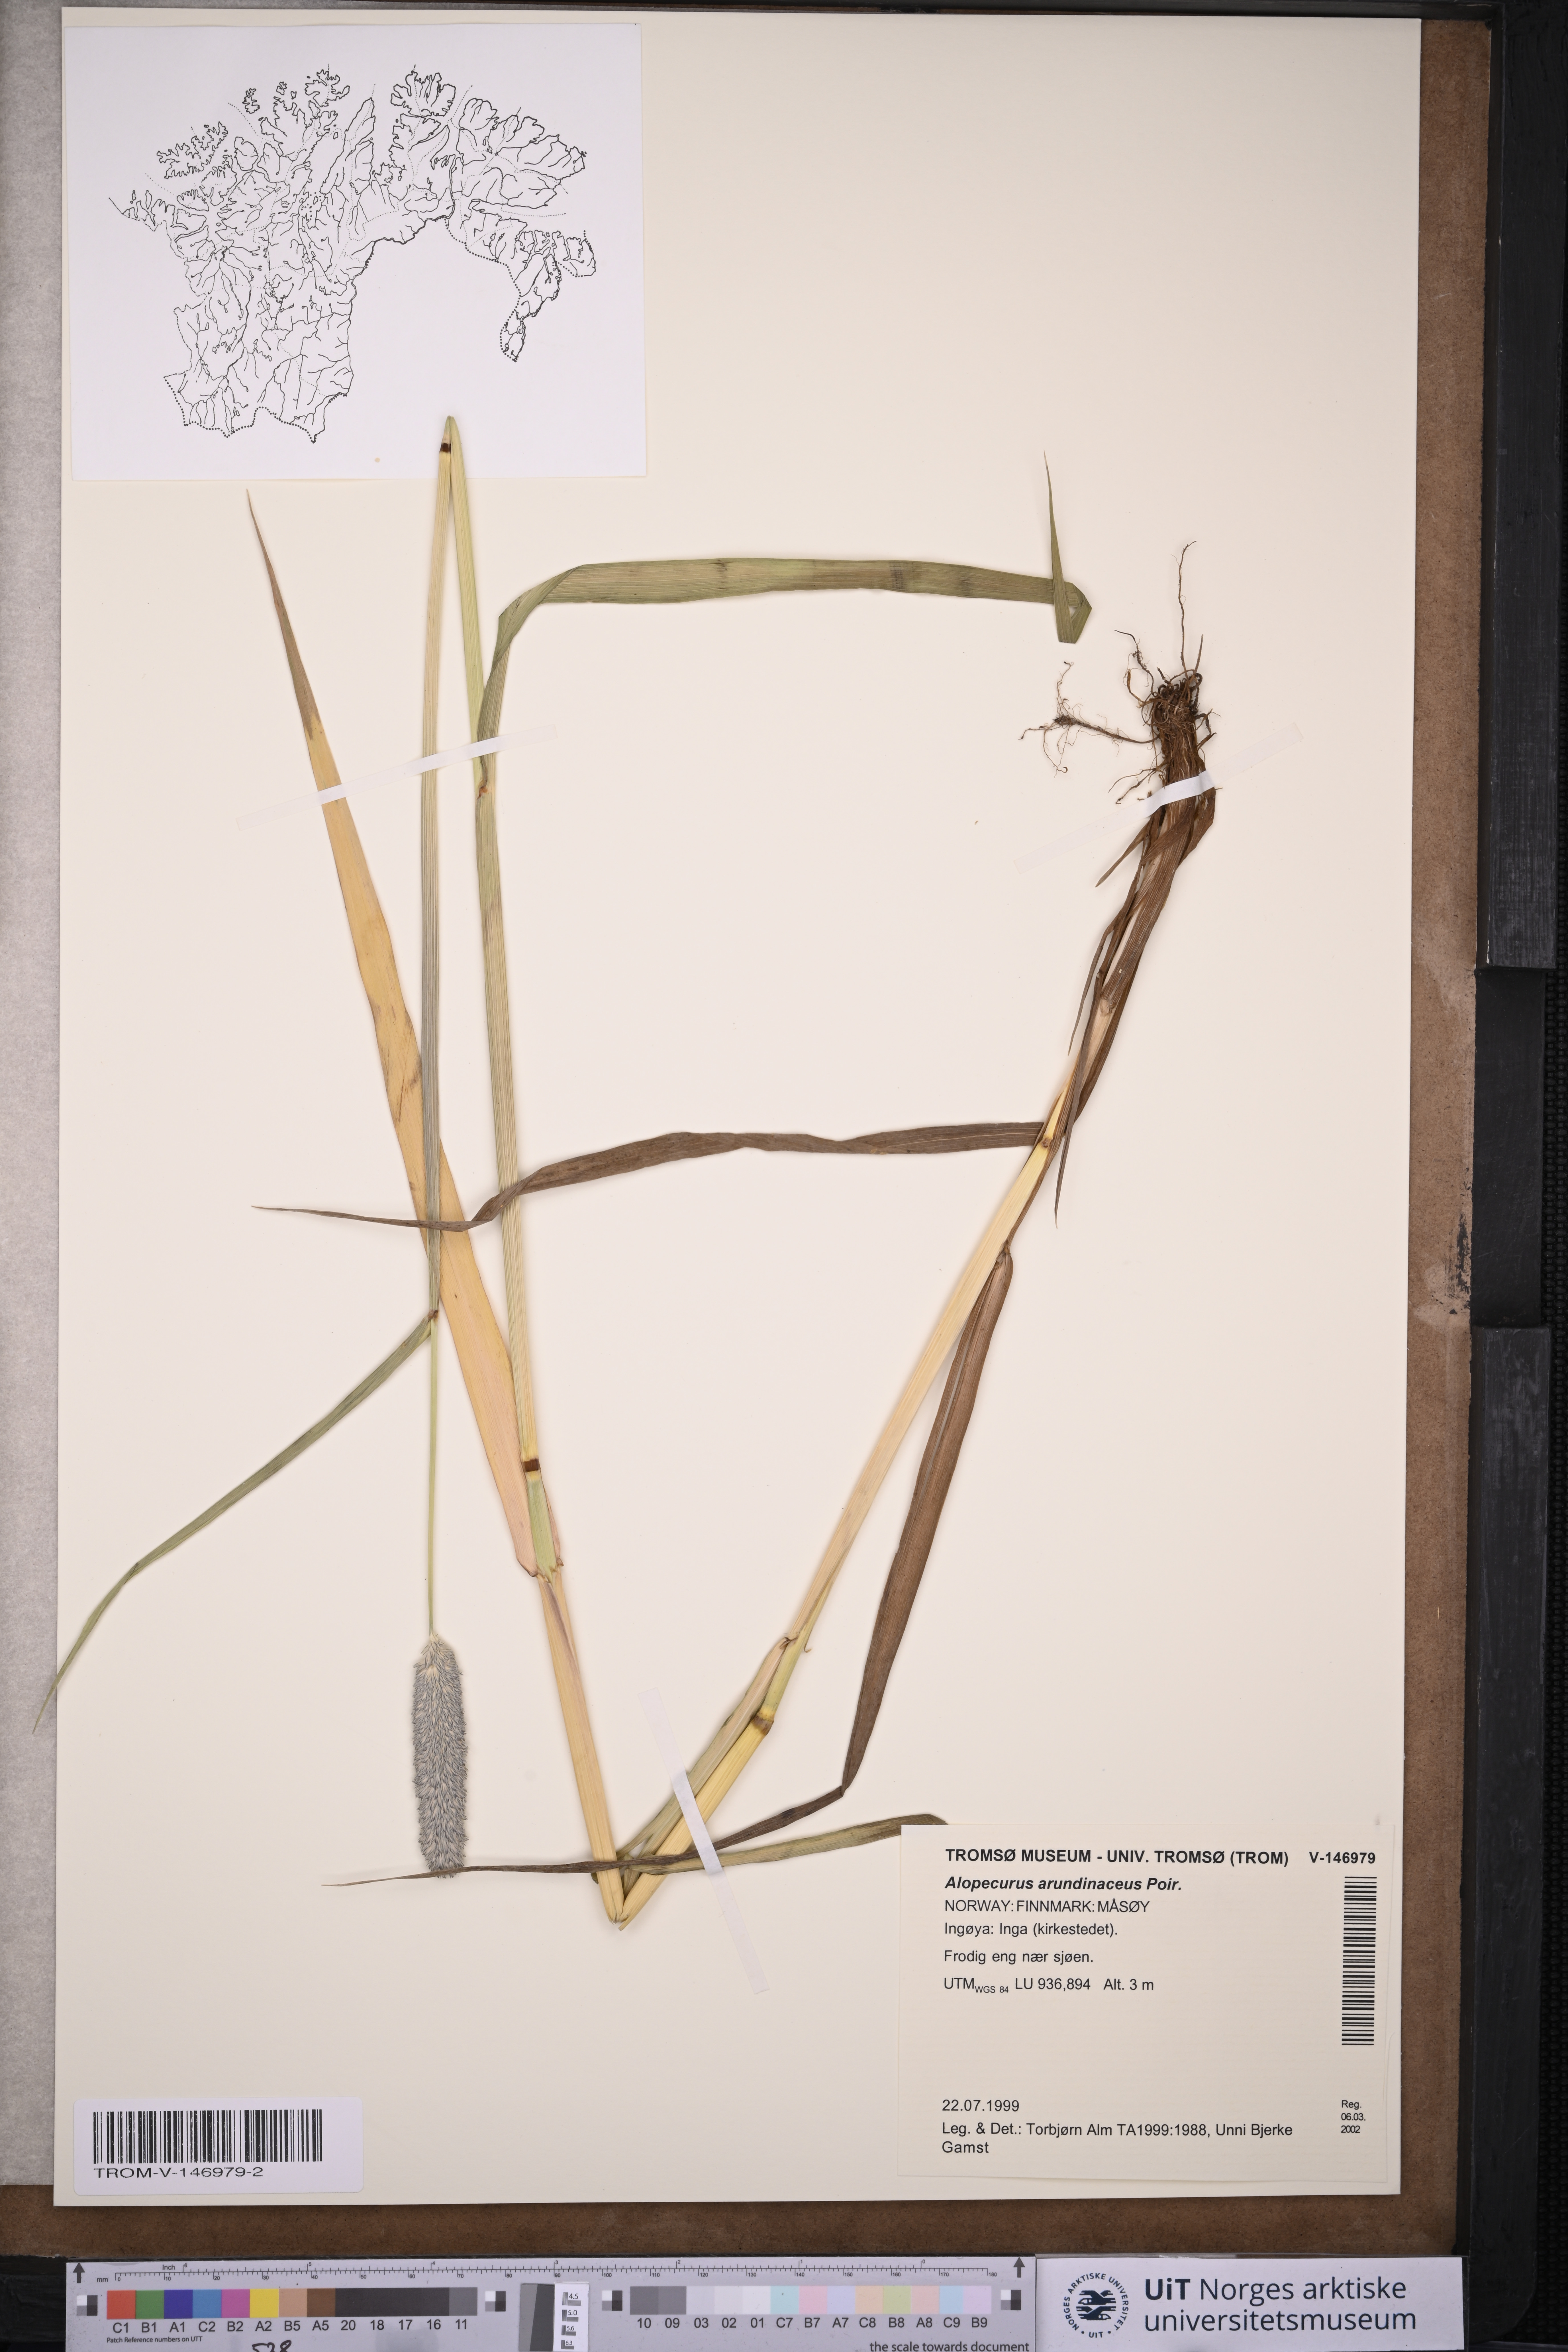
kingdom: Plantae
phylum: Tracheophyta
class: Liliopsida
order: Poales
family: Poaceae
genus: Alopecurus
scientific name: Alopecurus arundinaceus
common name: Creeping meadow foxtail
